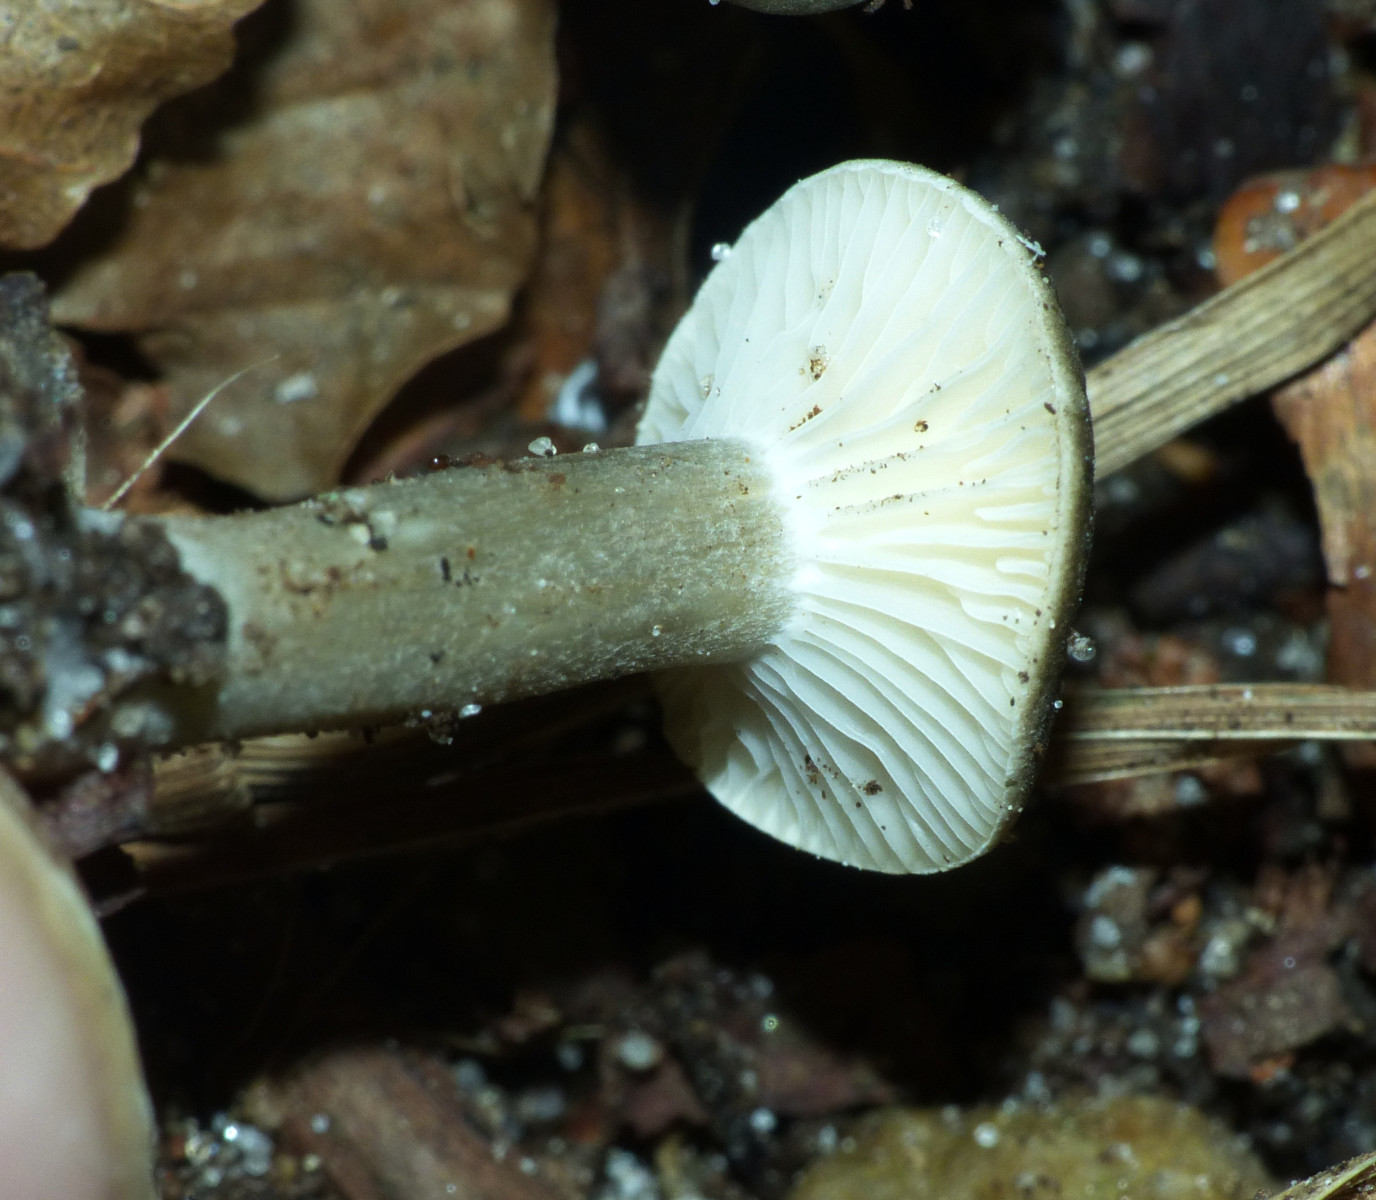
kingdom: Fungi
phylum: Basidiomycota
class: Agaricomycetes
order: Agaricales
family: Hygrophoraceae
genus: Spodocybe
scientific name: Spodocybe trulliformis
